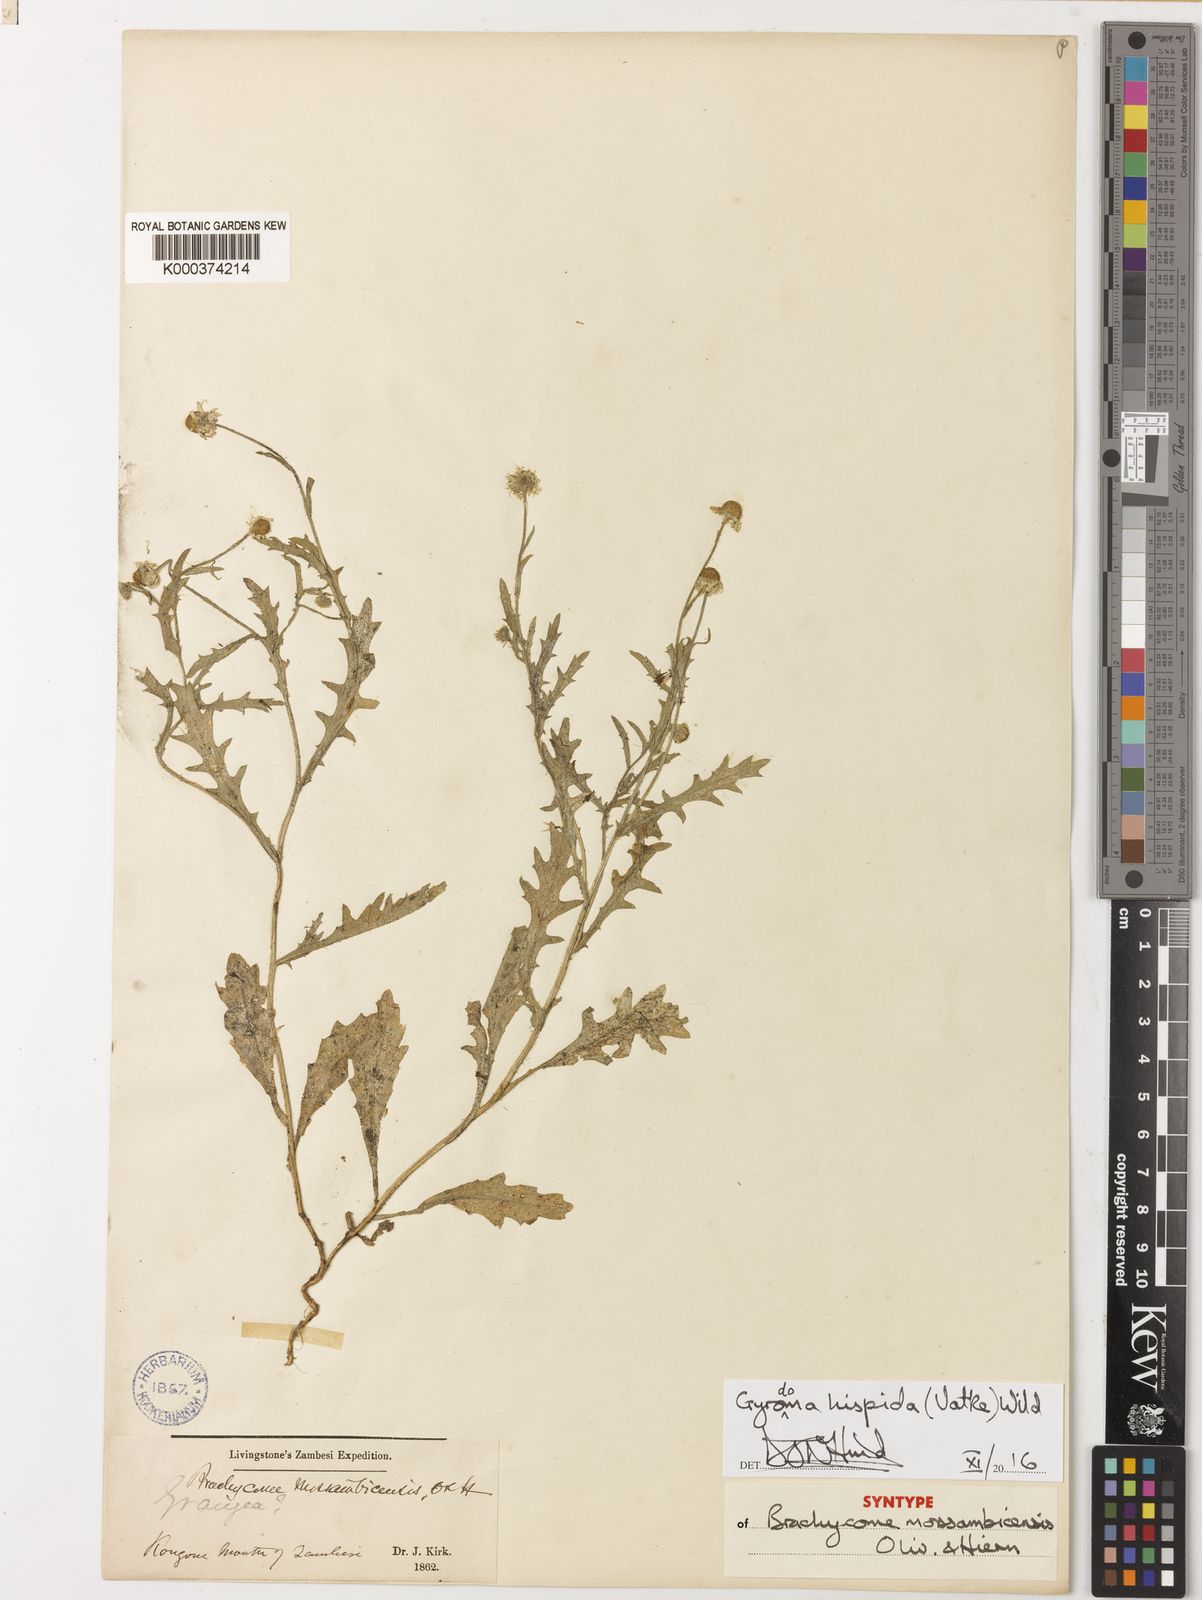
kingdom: Plantae
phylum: Tracheophyta
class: Magnoliopsida
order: Asterales
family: Asteraceae
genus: Gyrodoma
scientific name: Gyrodoma hispida
